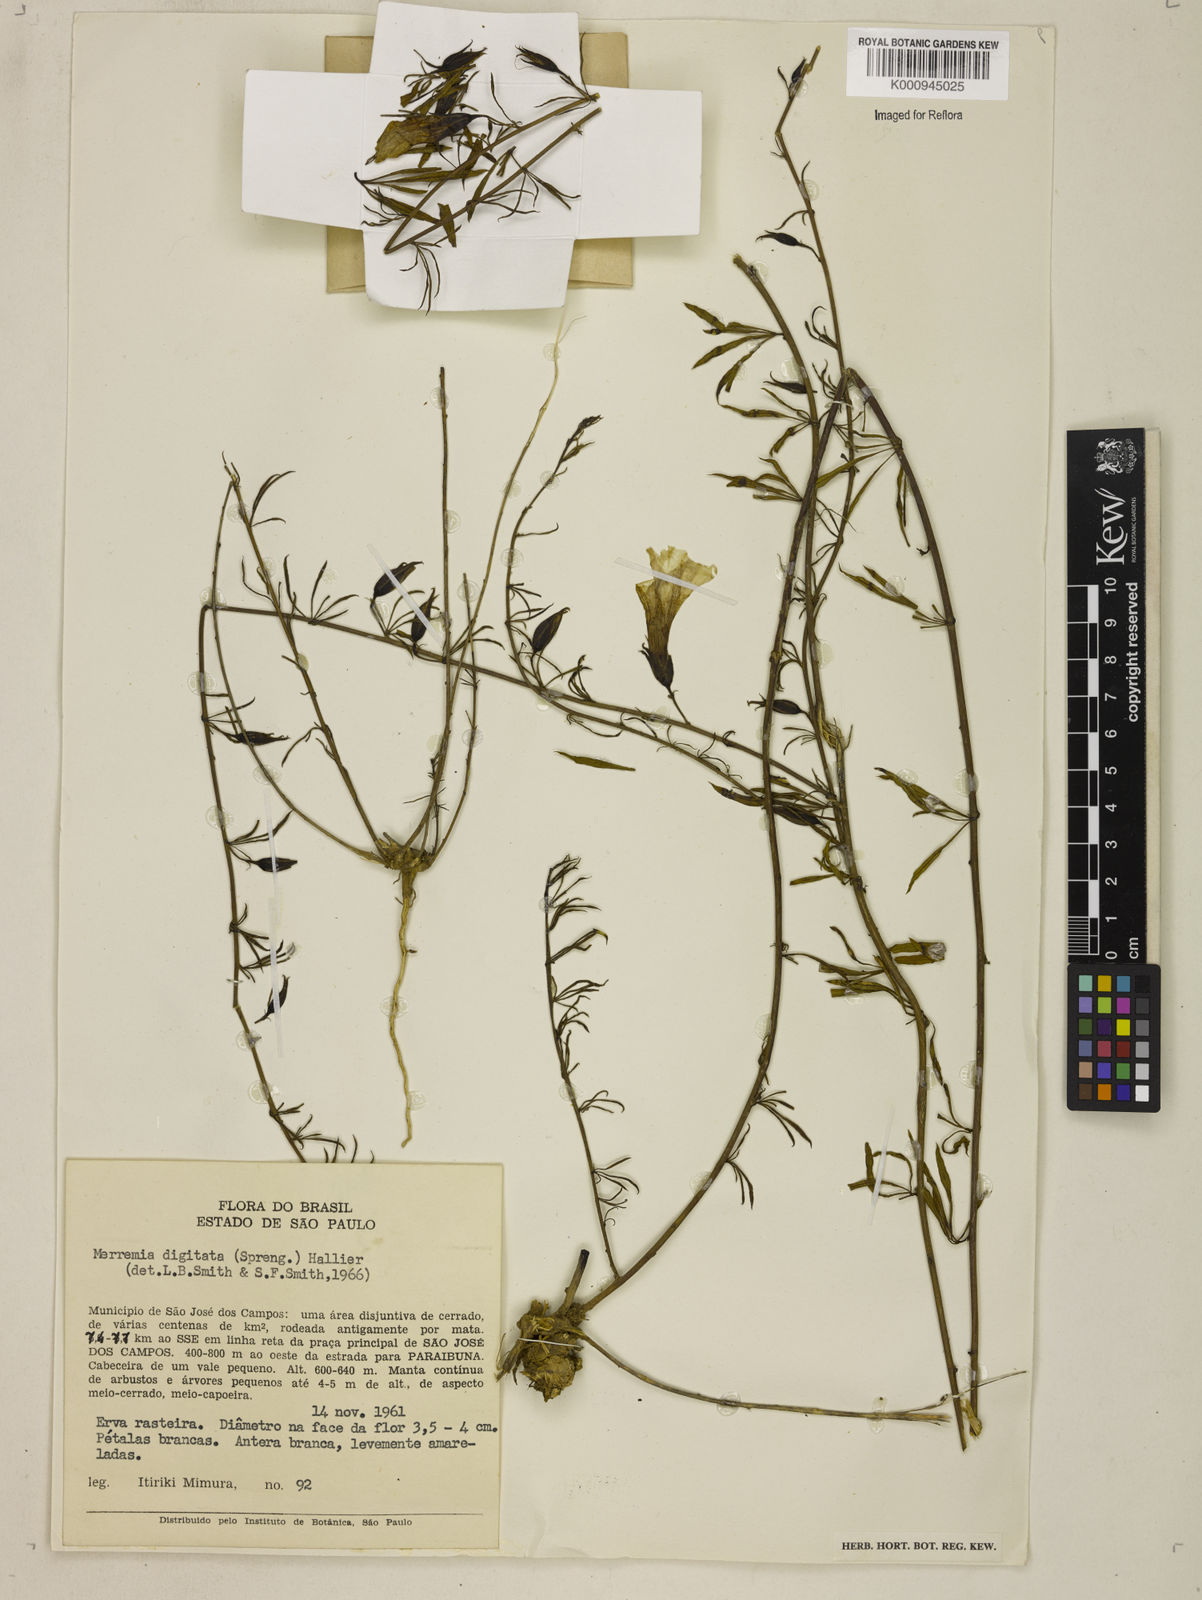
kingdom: Plantae
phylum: Tracheophyta
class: Magnoliopsida
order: Solanales
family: Convolvulaceae
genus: Distimake
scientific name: Distimake digitatus
